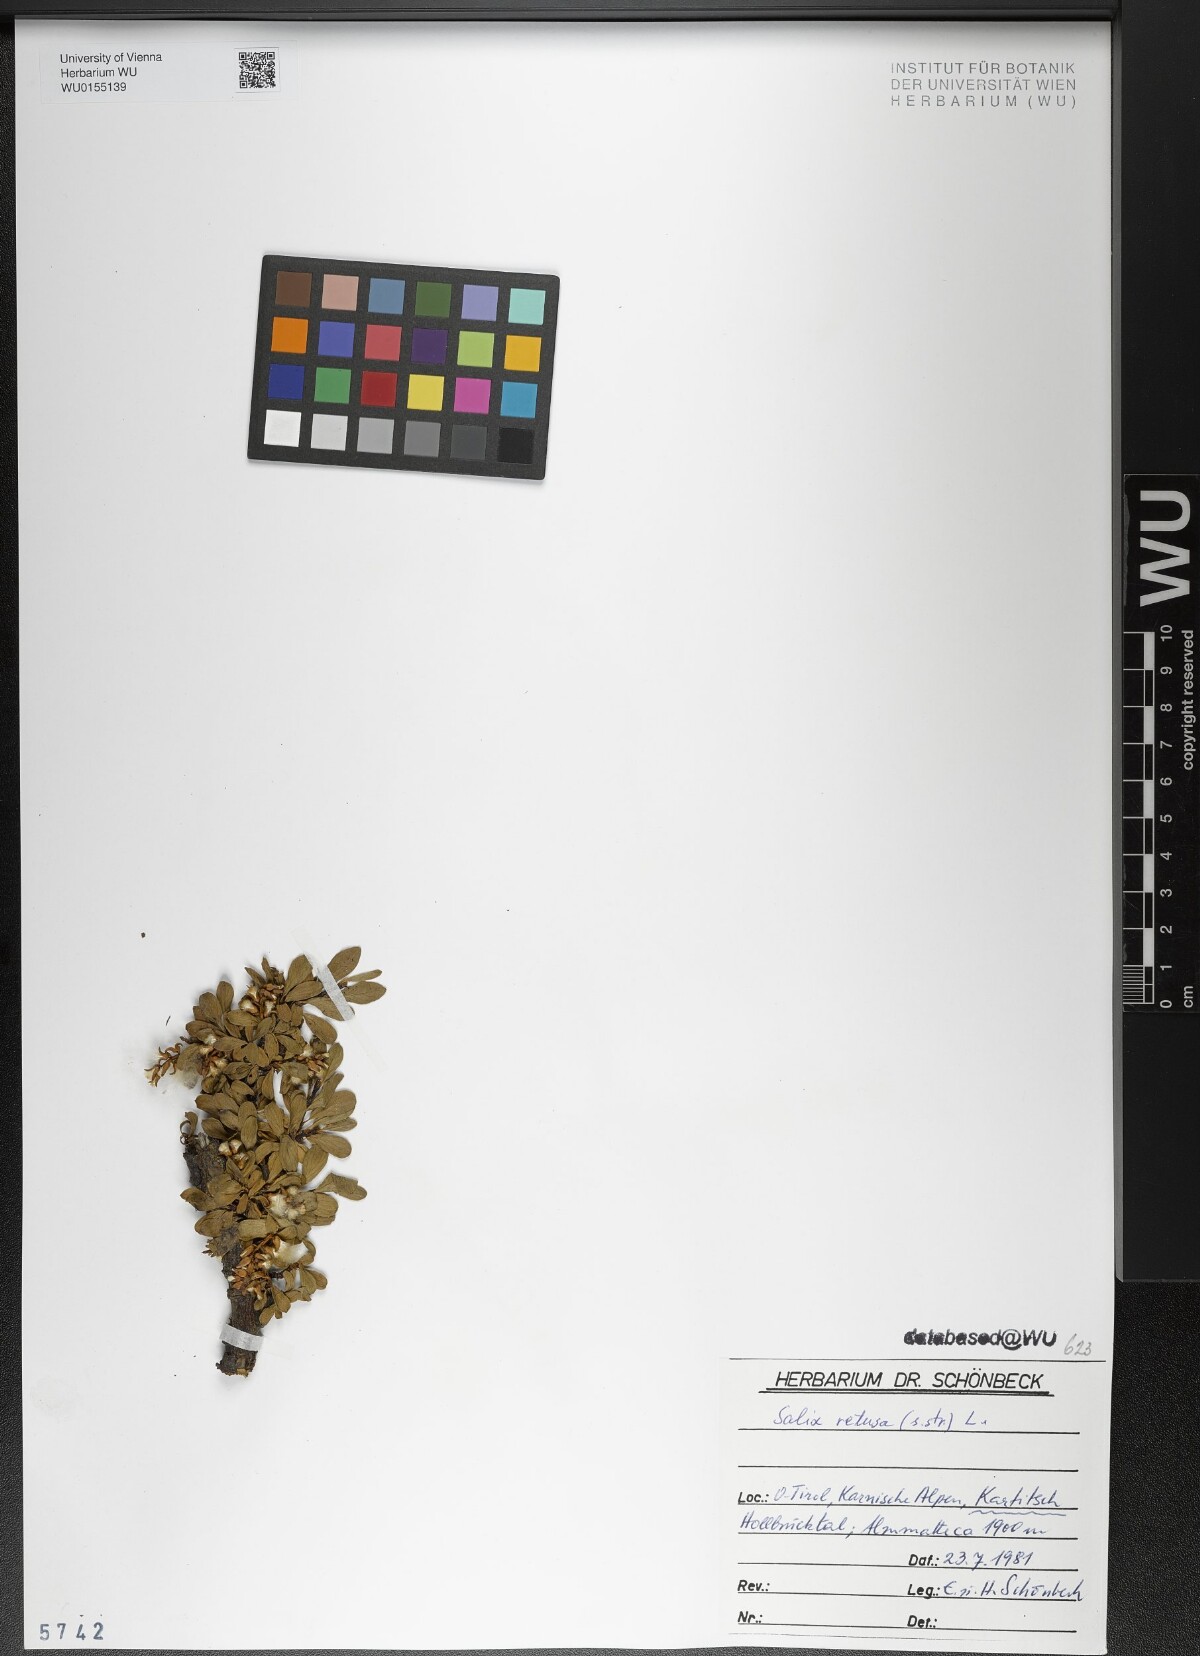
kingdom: Plantae
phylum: Tracheophyta
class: Magnoliopsida
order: Malpighiales
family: Salicaceae
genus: Salix
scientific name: Salix retusa
